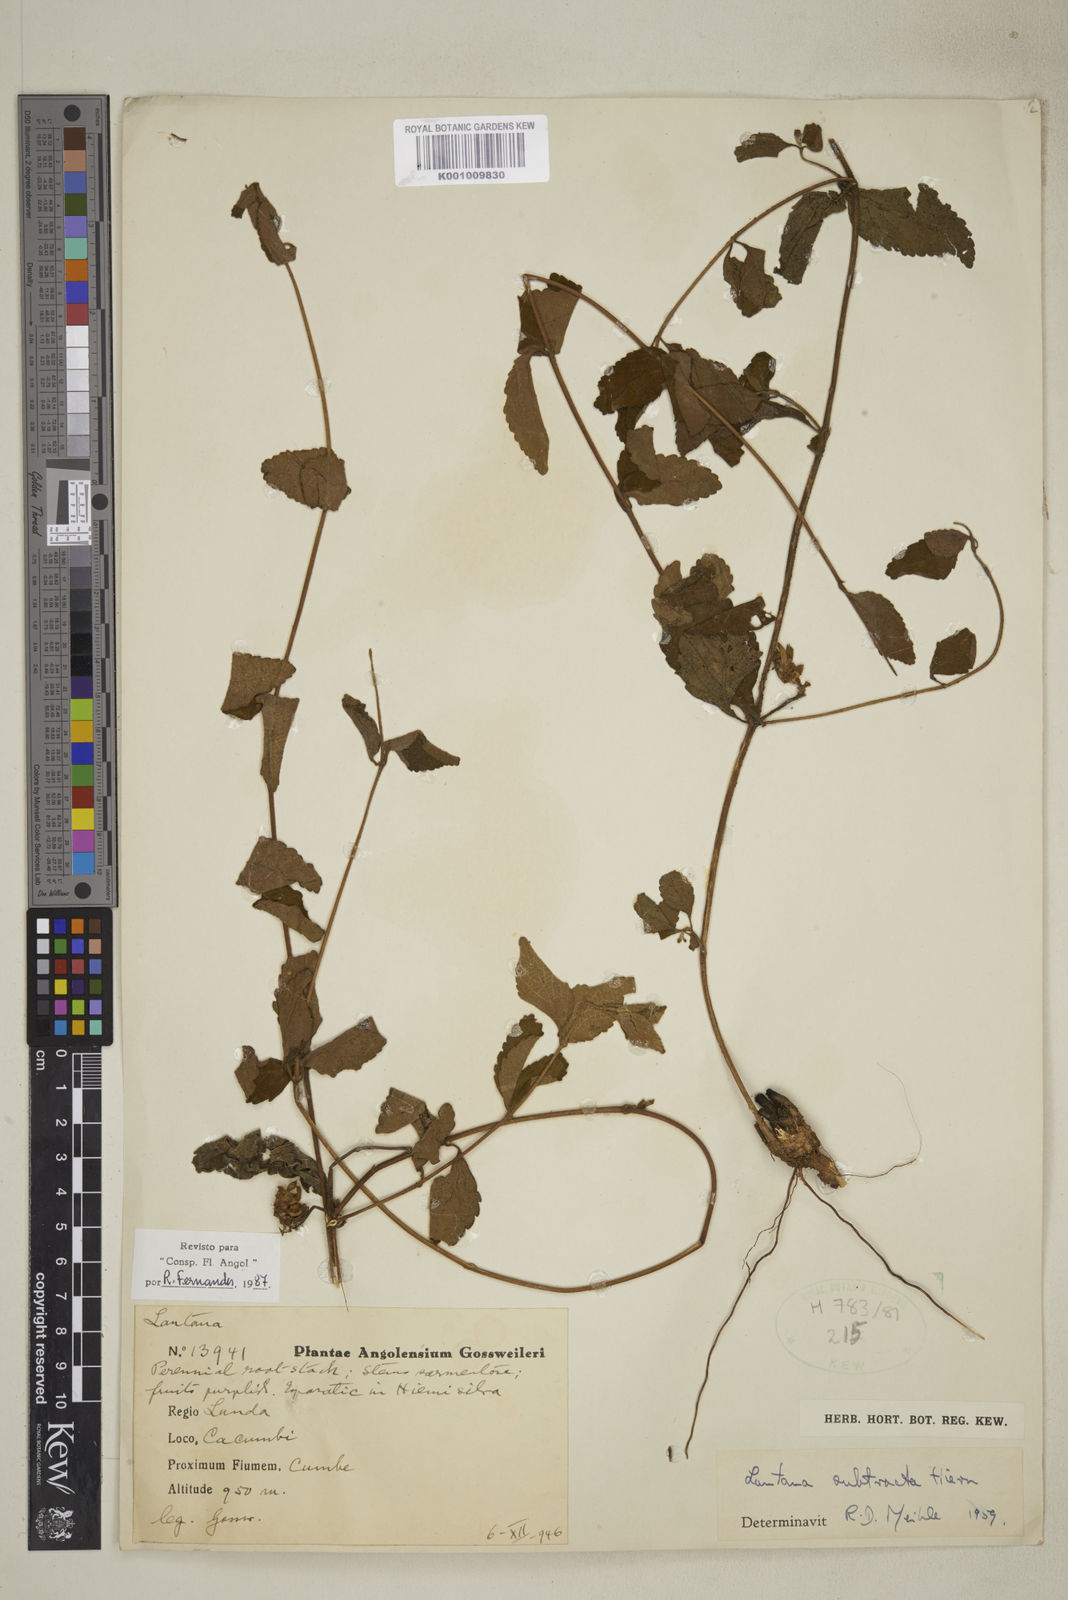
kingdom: Plantae
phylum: Tracheophyta
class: Magnoliopsida
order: Lamiales
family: Verbenaceae
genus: Lantana
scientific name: Lantana subtracta
